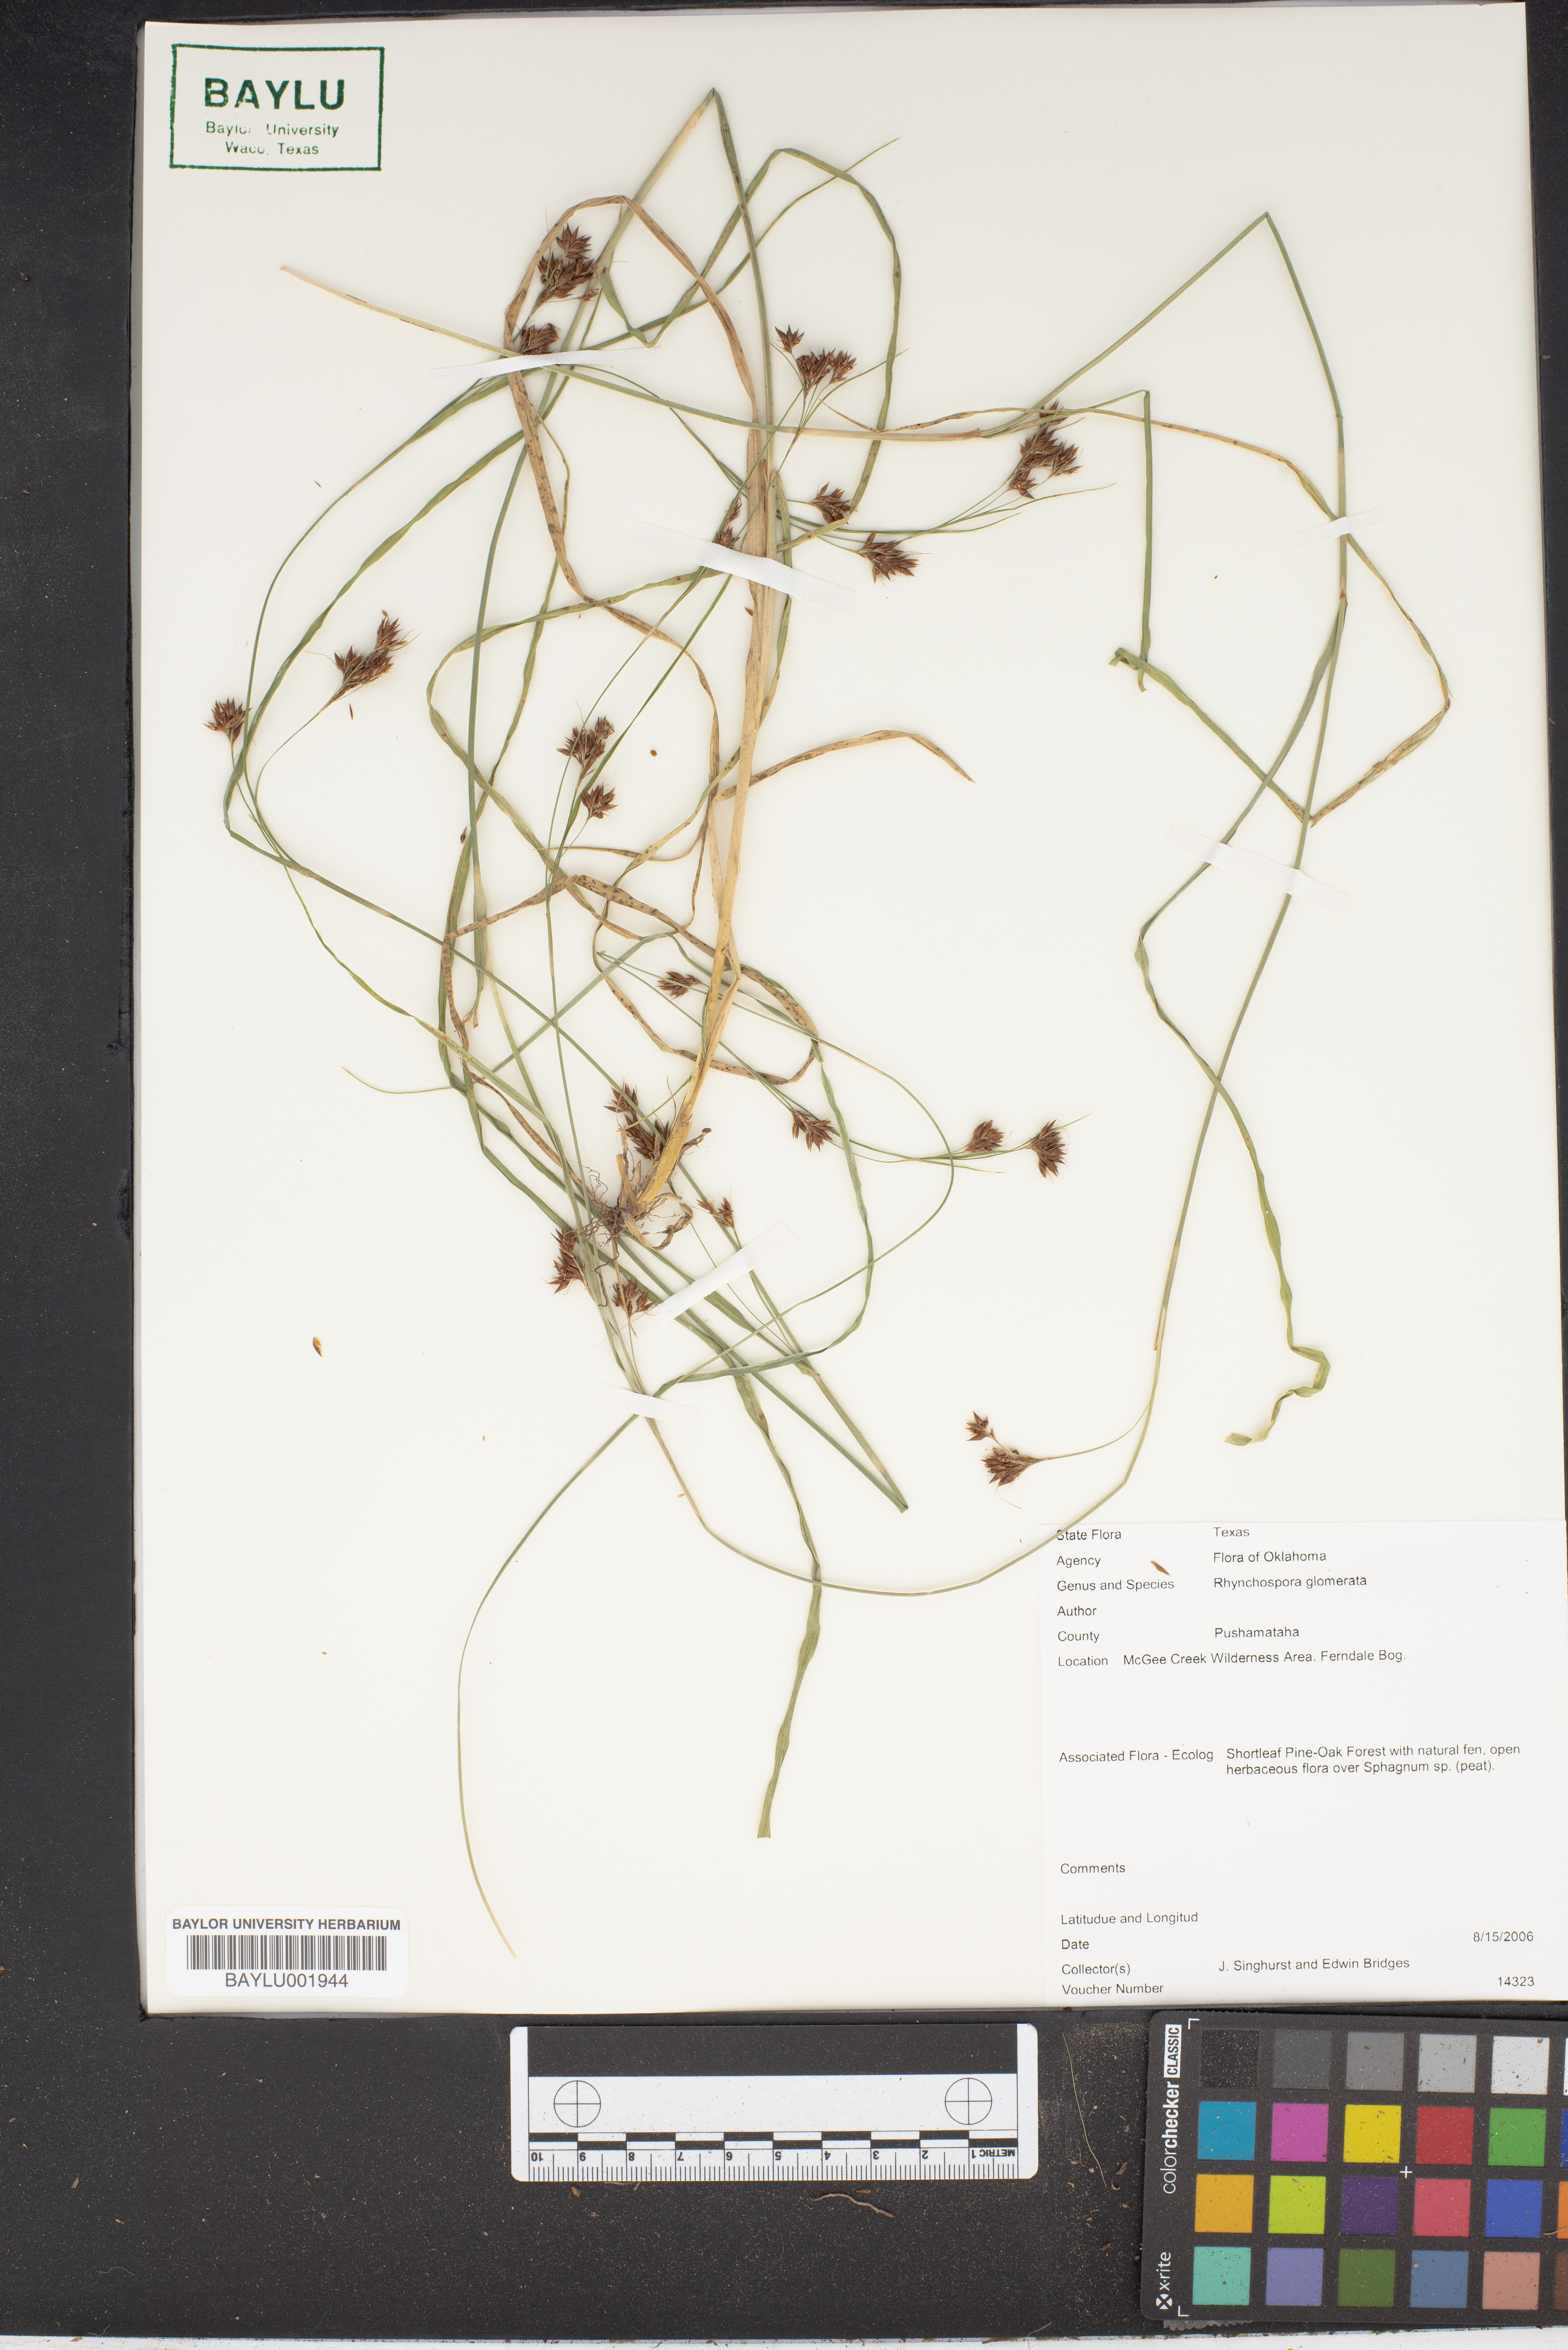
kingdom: Plantae
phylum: Tracheophyta
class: Liliopsida
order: Poales
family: Cyperaceae
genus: Rhynchospora
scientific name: Rhynchospora glomerata
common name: Cluster beak sedge
